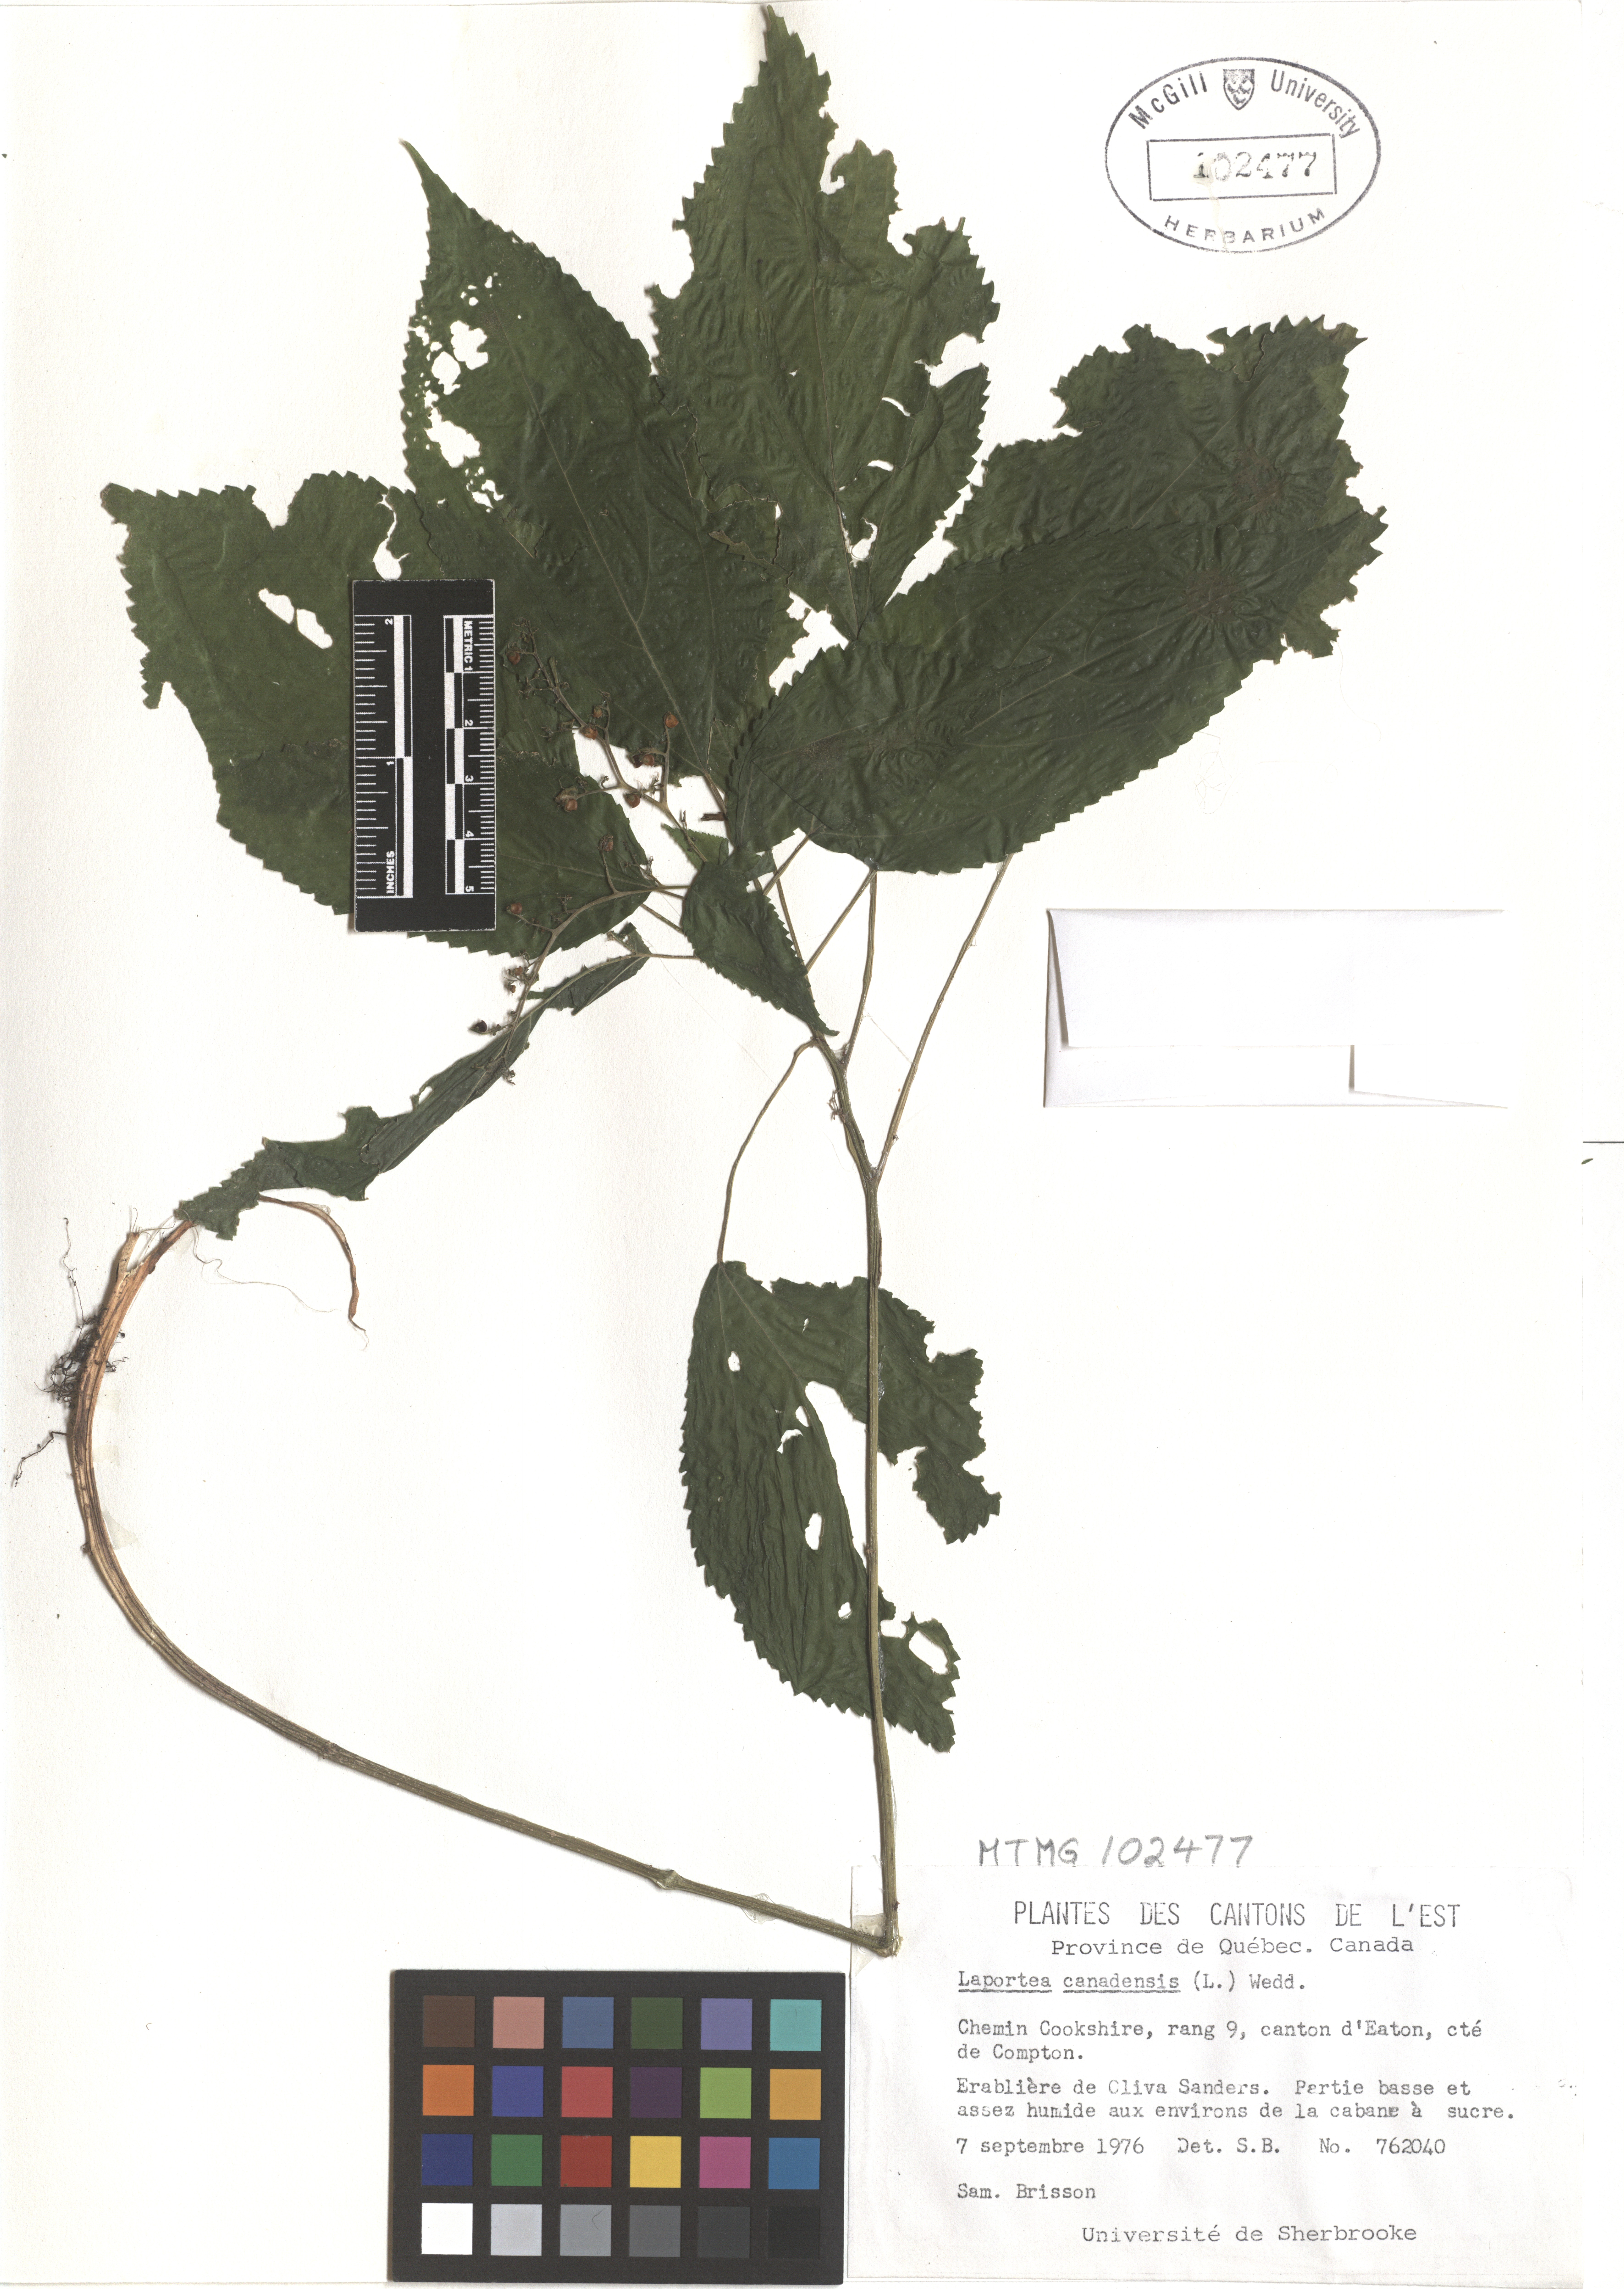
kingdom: Plantae
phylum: Tracheophyta
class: Magnoliopsida
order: Rosales
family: Urticaceae
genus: Laportea
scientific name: Laportea canadensis
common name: Canada nettle
